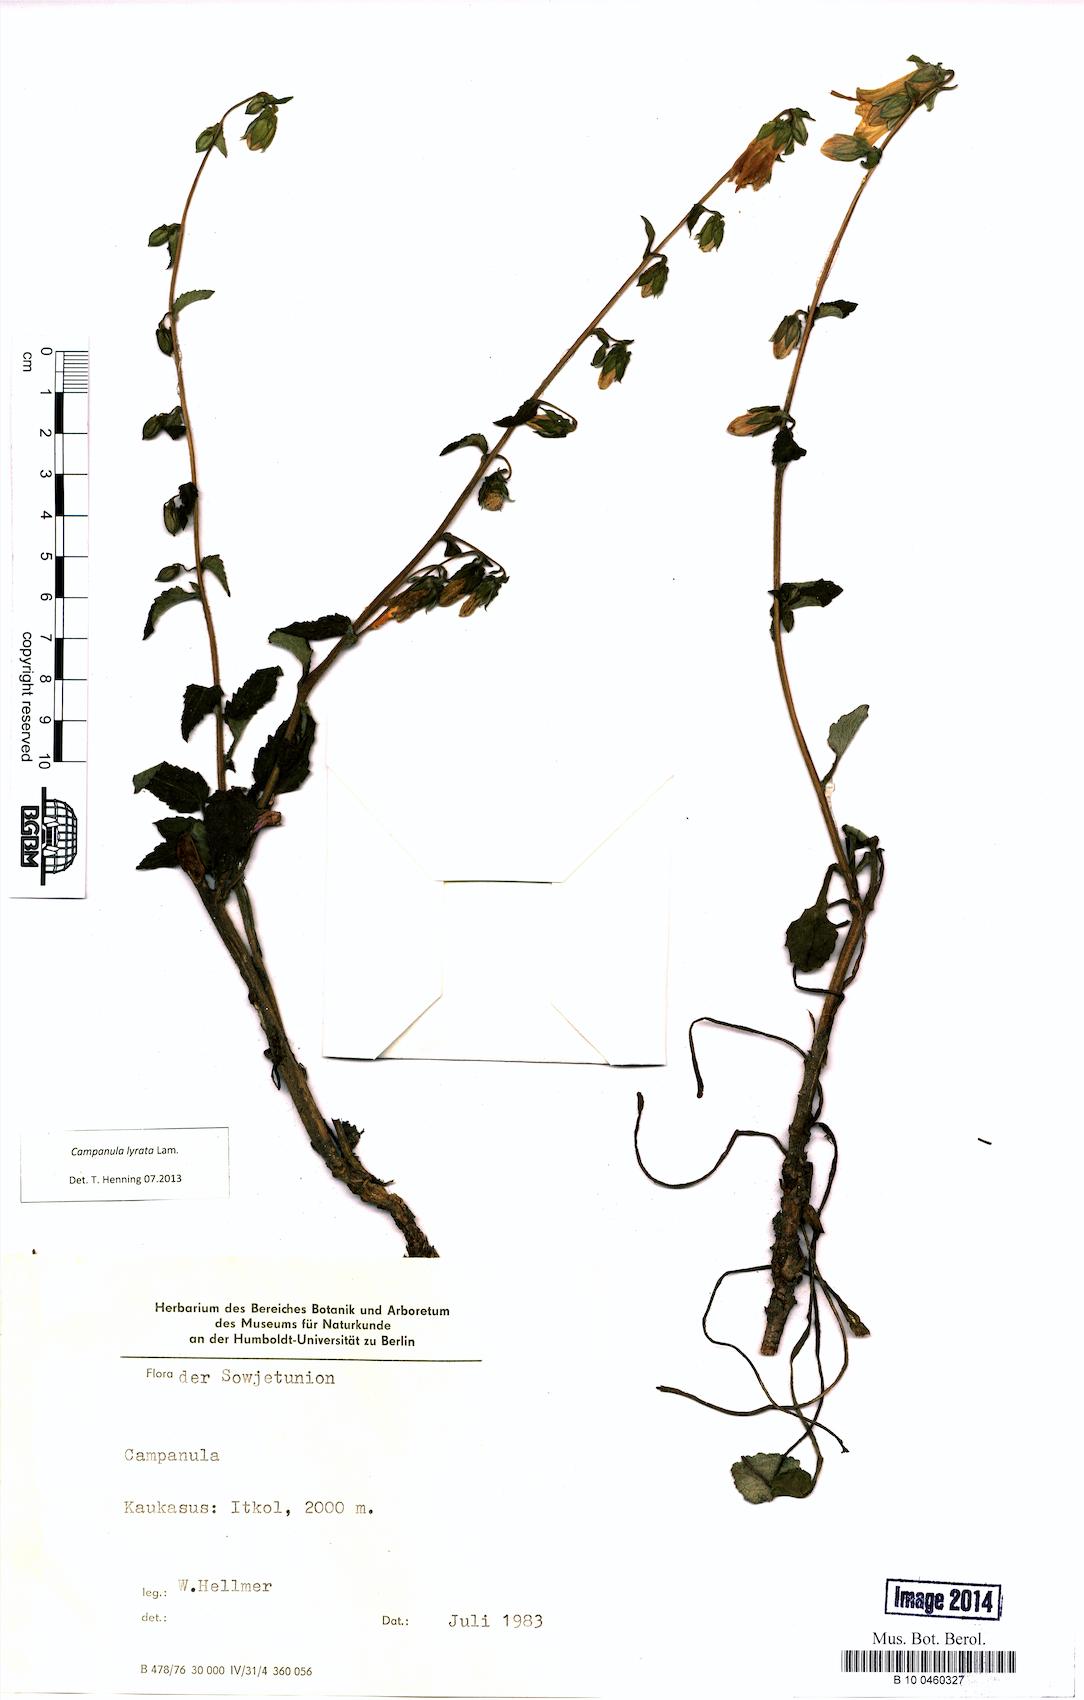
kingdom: Plantae
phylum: Tracheophyta
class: Magnoliopsida
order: Asterales
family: Campanulaceae
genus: Campanula
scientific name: Campanula lyrata
